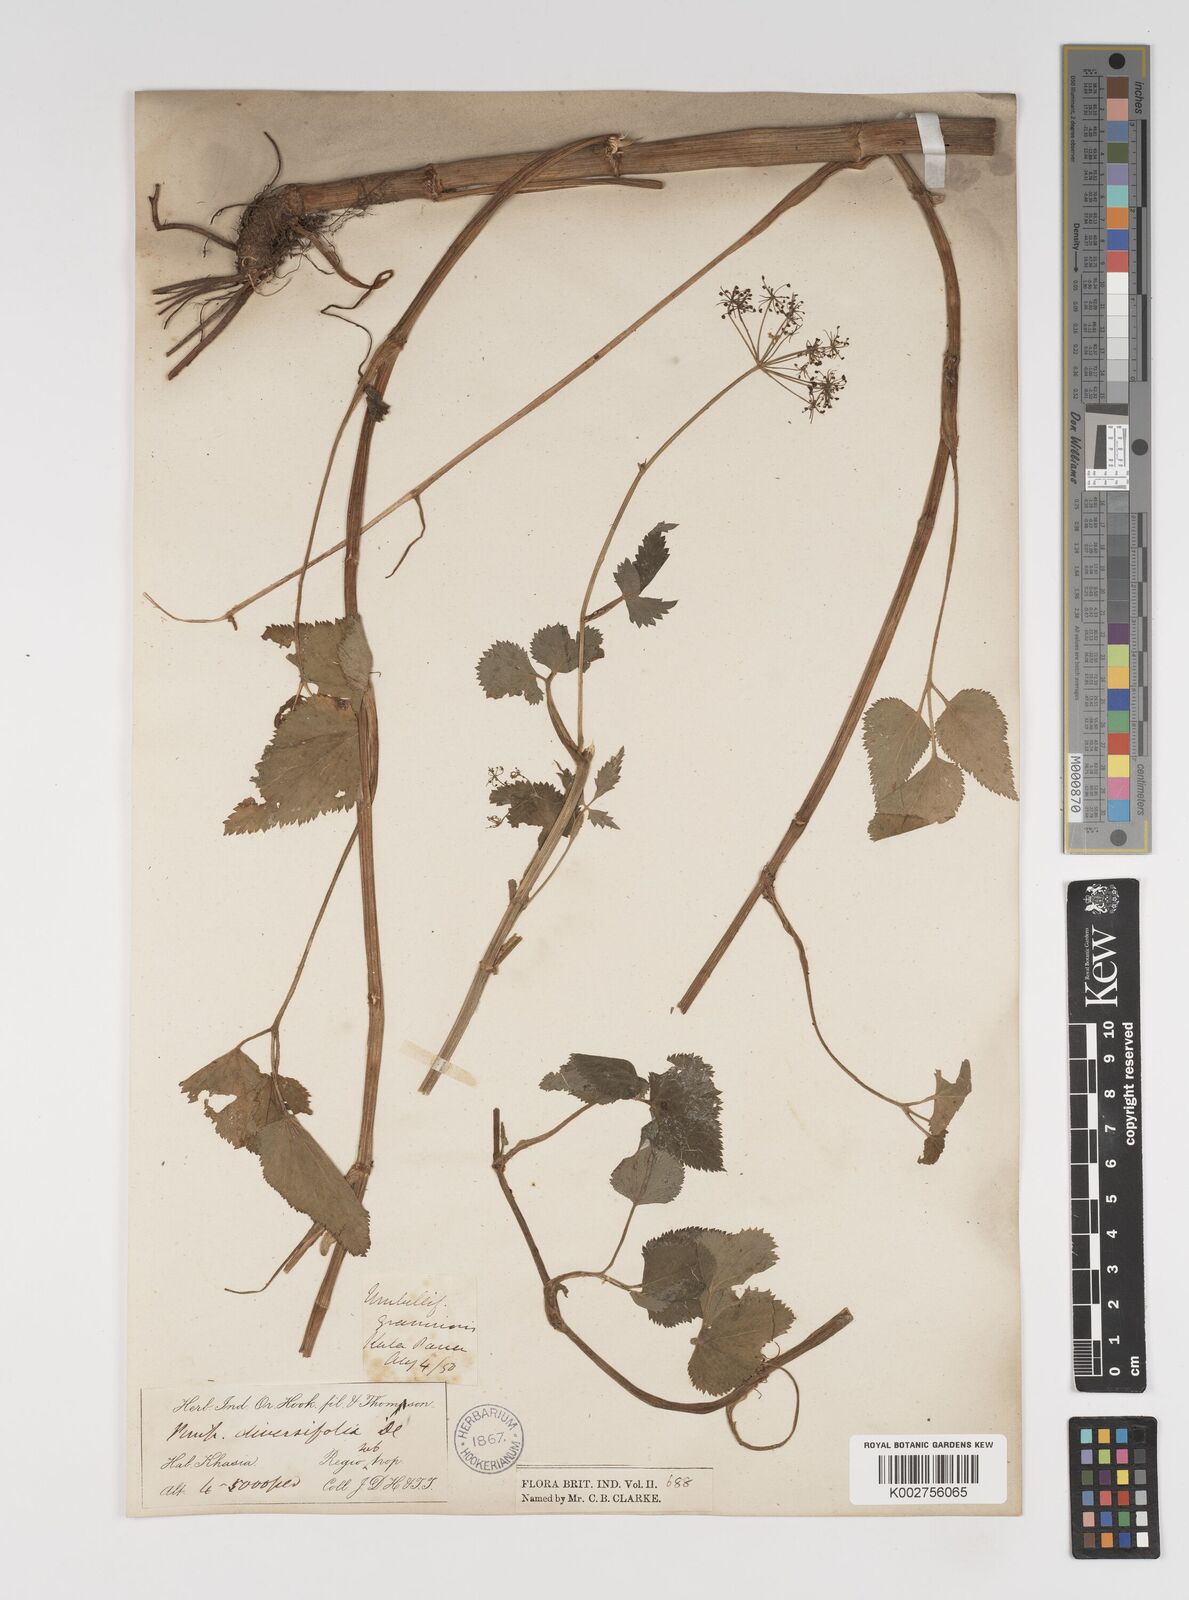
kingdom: Plantae
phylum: Tracheophyta
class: Magnoliopsida
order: Apiales
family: Apiaceae
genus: Pimpinella
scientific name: Pimpinella diversifolia
